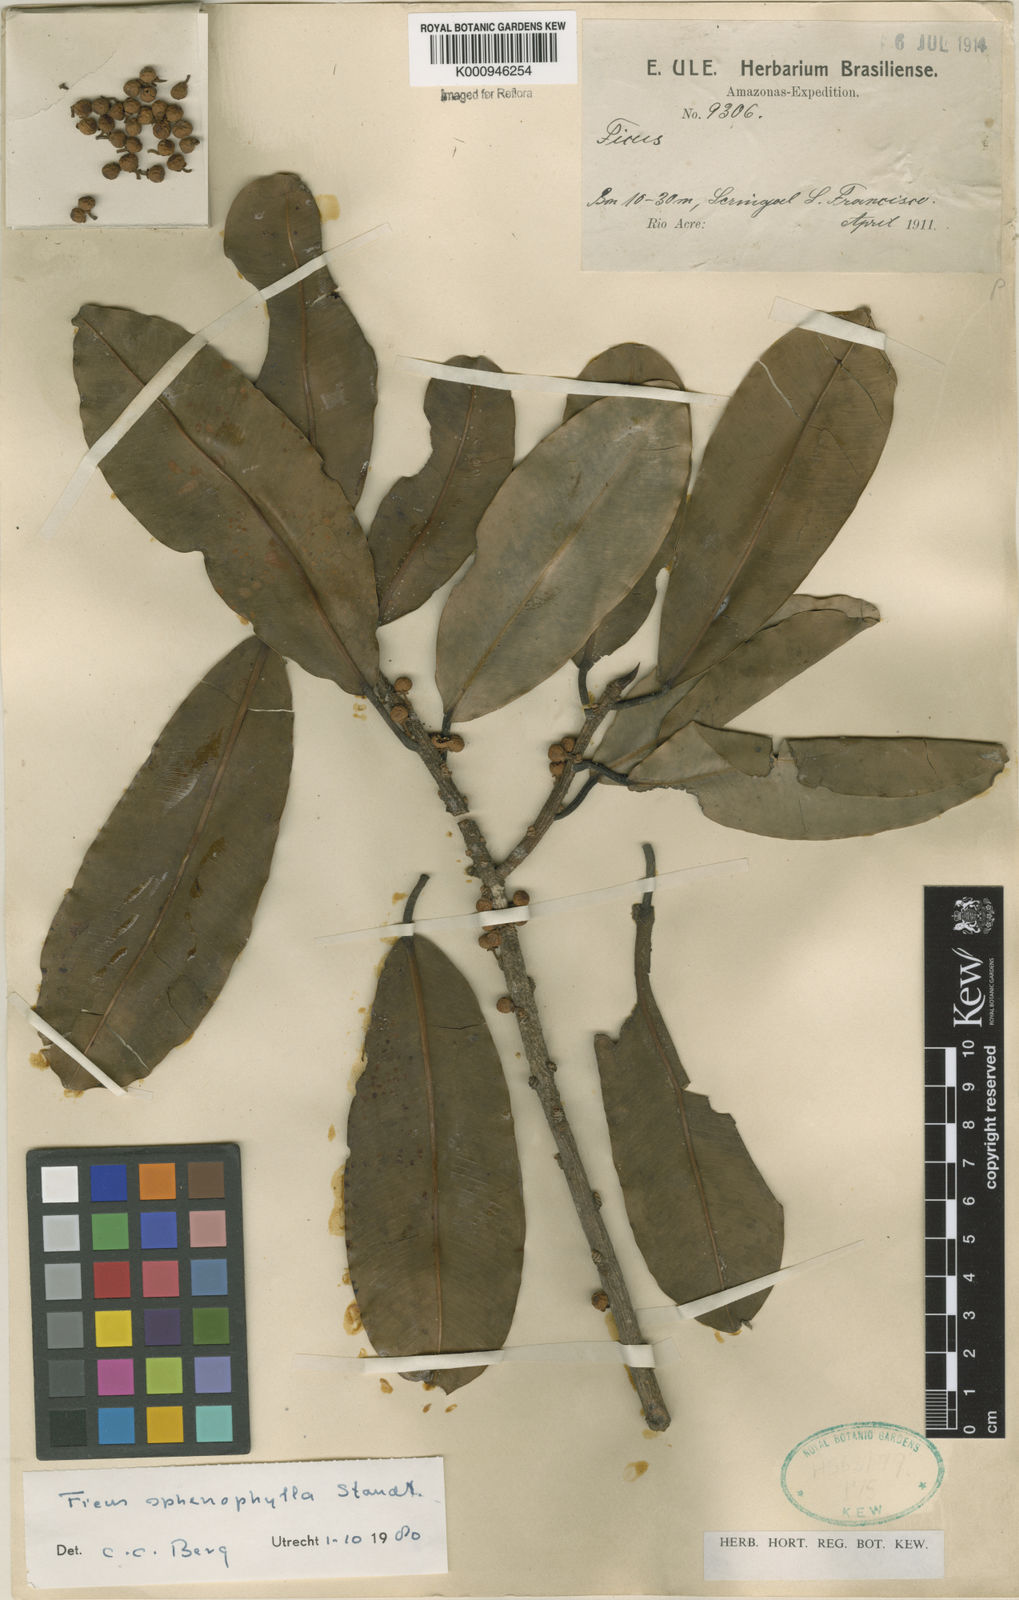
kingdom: Plantae
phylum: Tracheophyta
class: Magnoliopsida
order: Rosales
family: Moraceae
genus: Ficus
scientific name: Ficus sphenophylla
